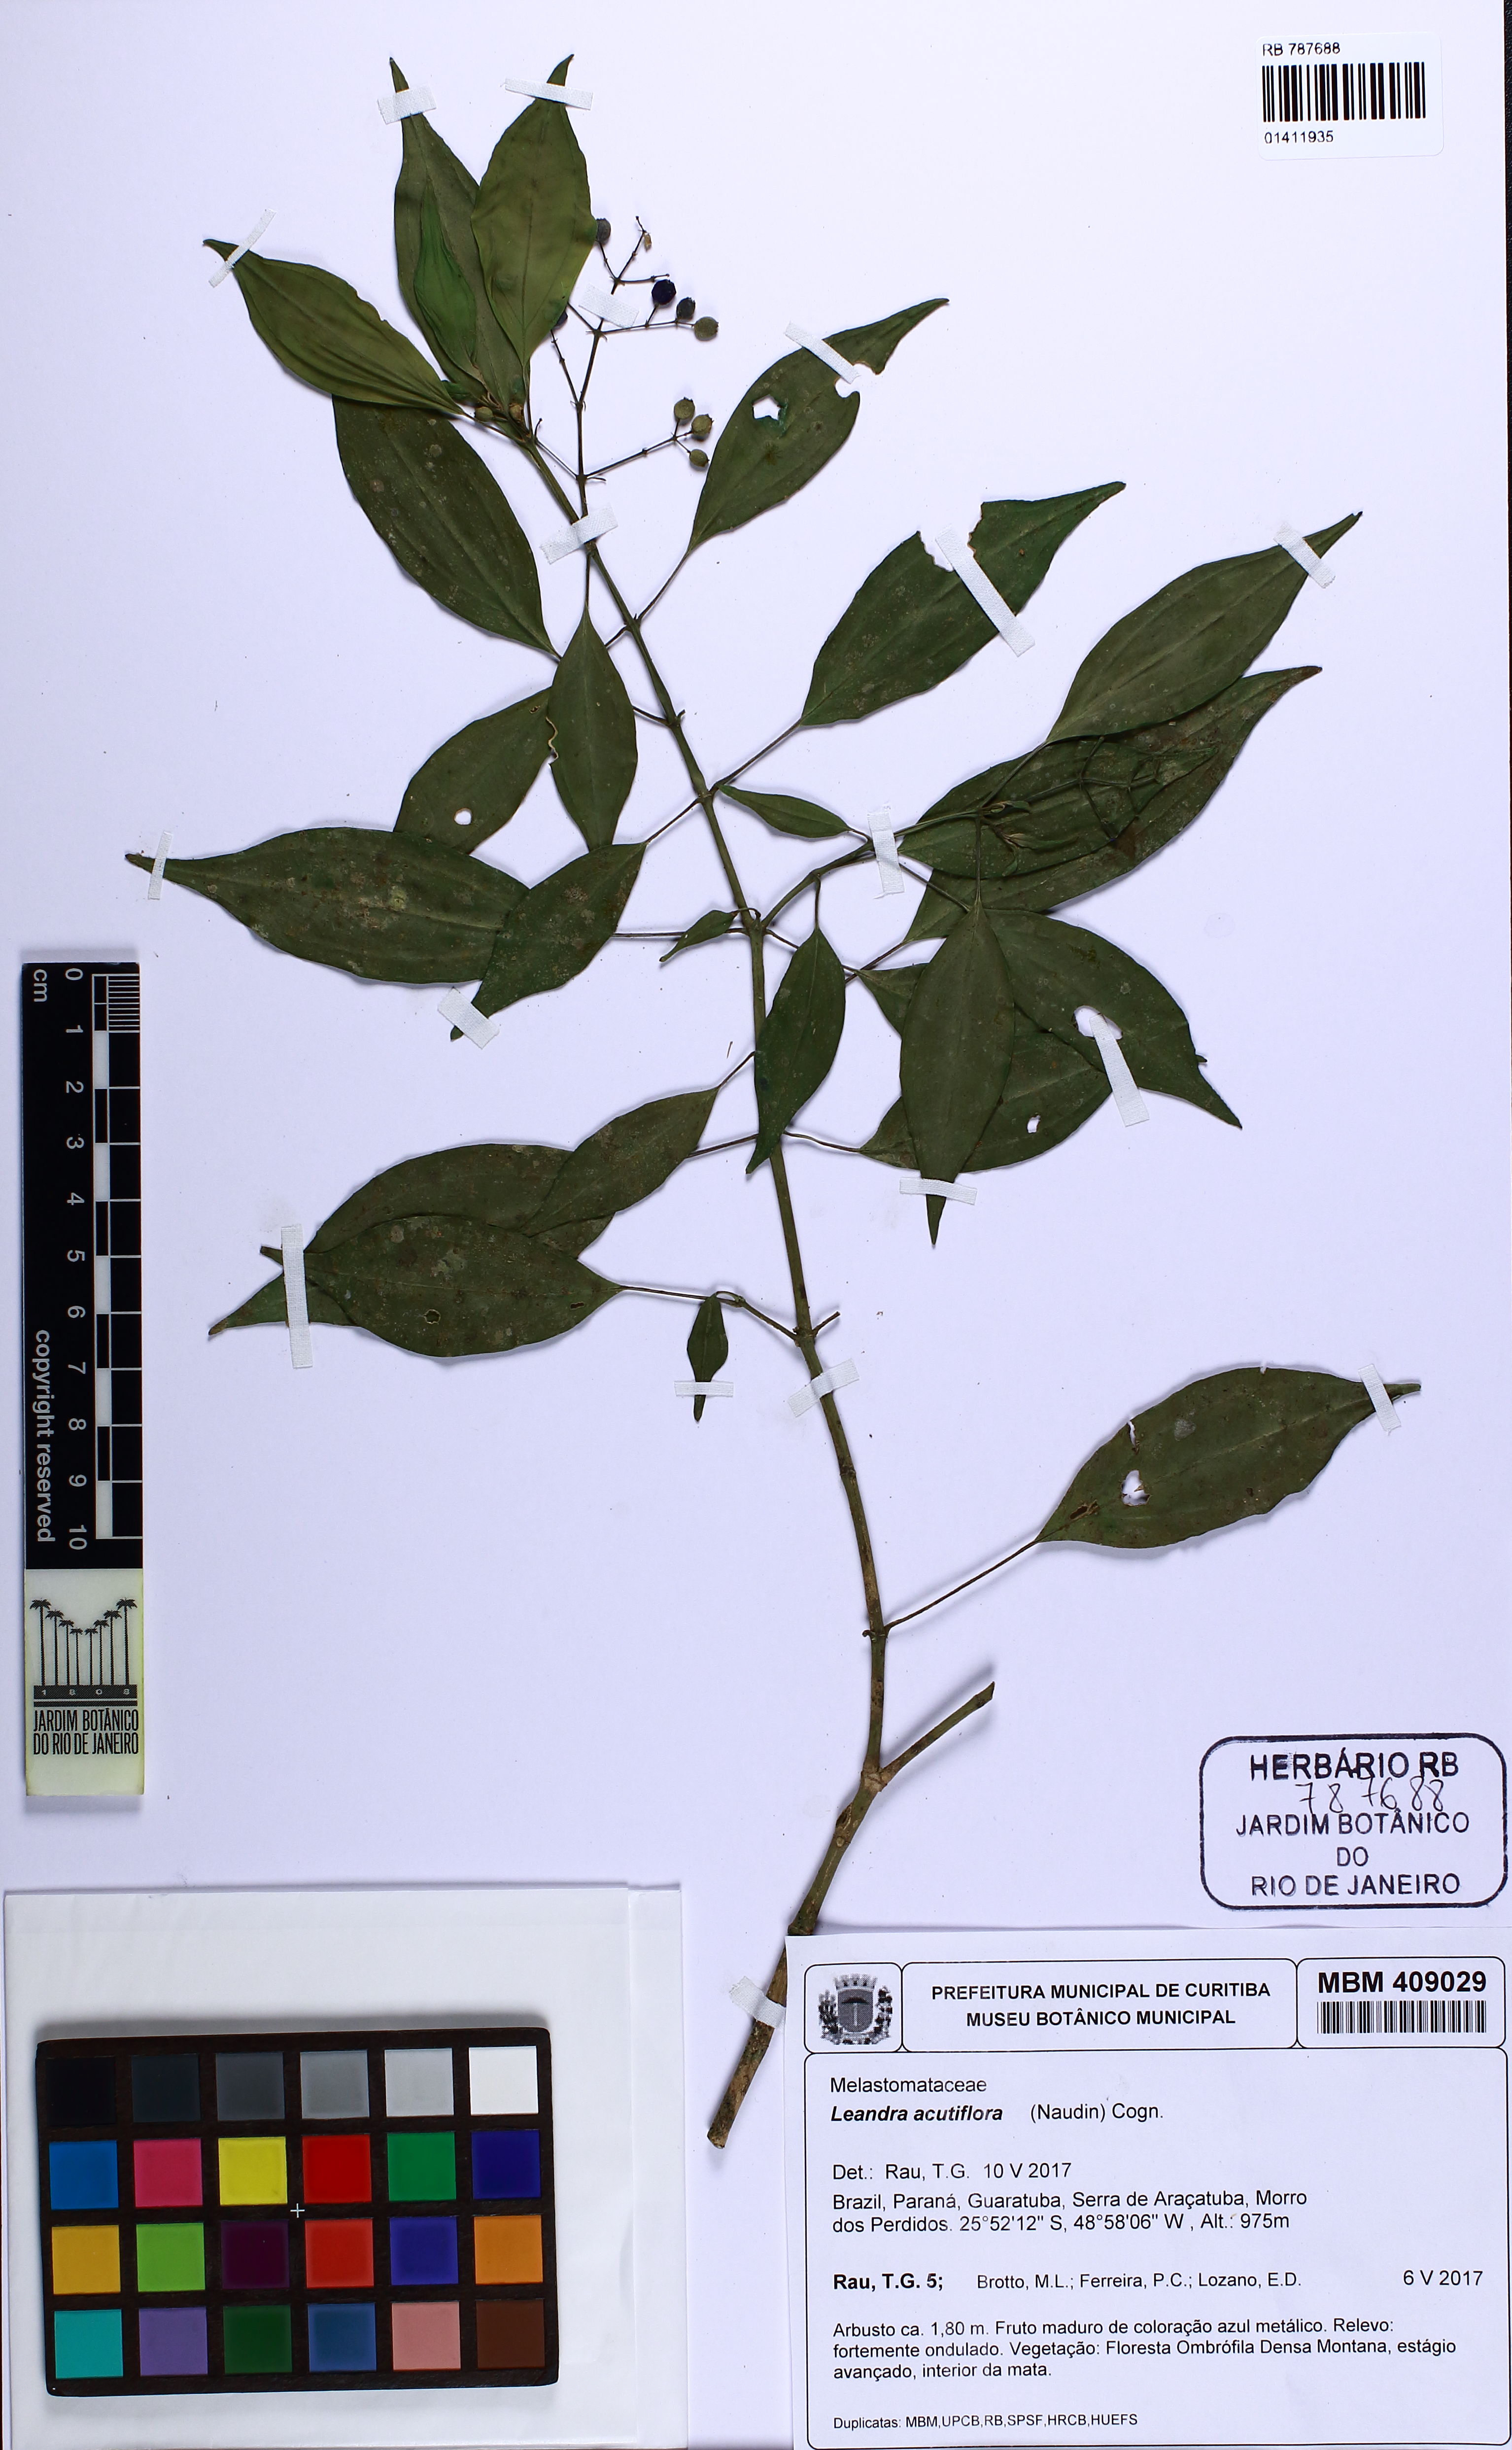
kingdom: Plantae
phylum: Tracheophyta
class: Magnoliopsida
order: Myrtales
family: Melastomataceae
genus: Miconia
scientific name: Miconia leacuminata
